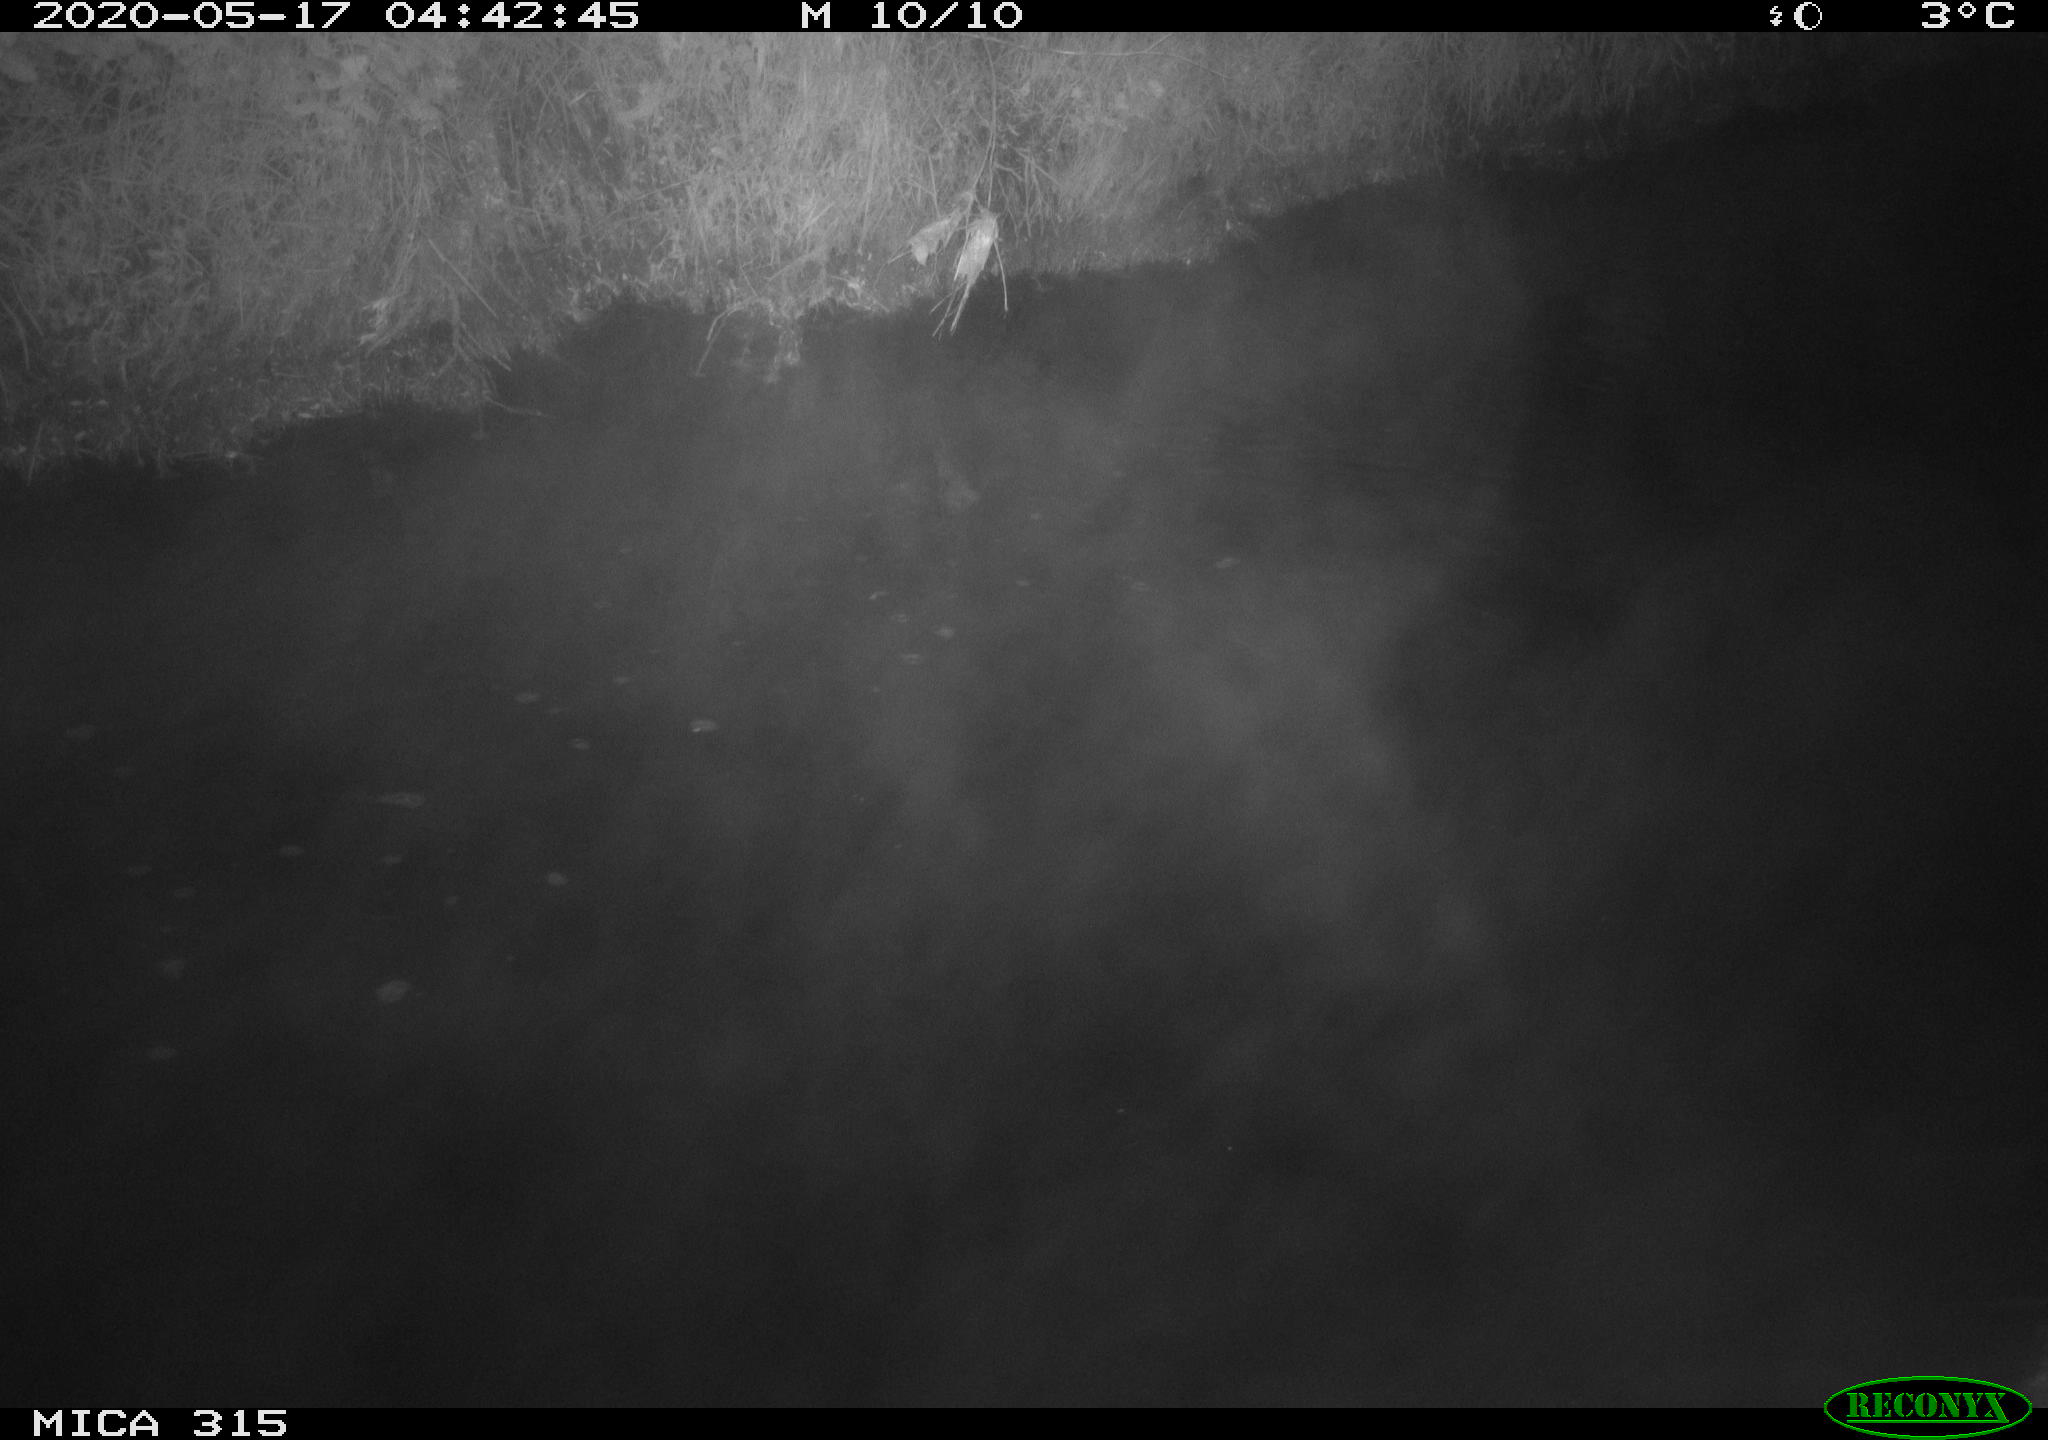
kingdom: Animalia
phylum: Chordata
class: Aves
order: Anseriformes
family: Anatidae
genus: Anas
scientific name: Anas platyrhynchos
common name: Mallard
